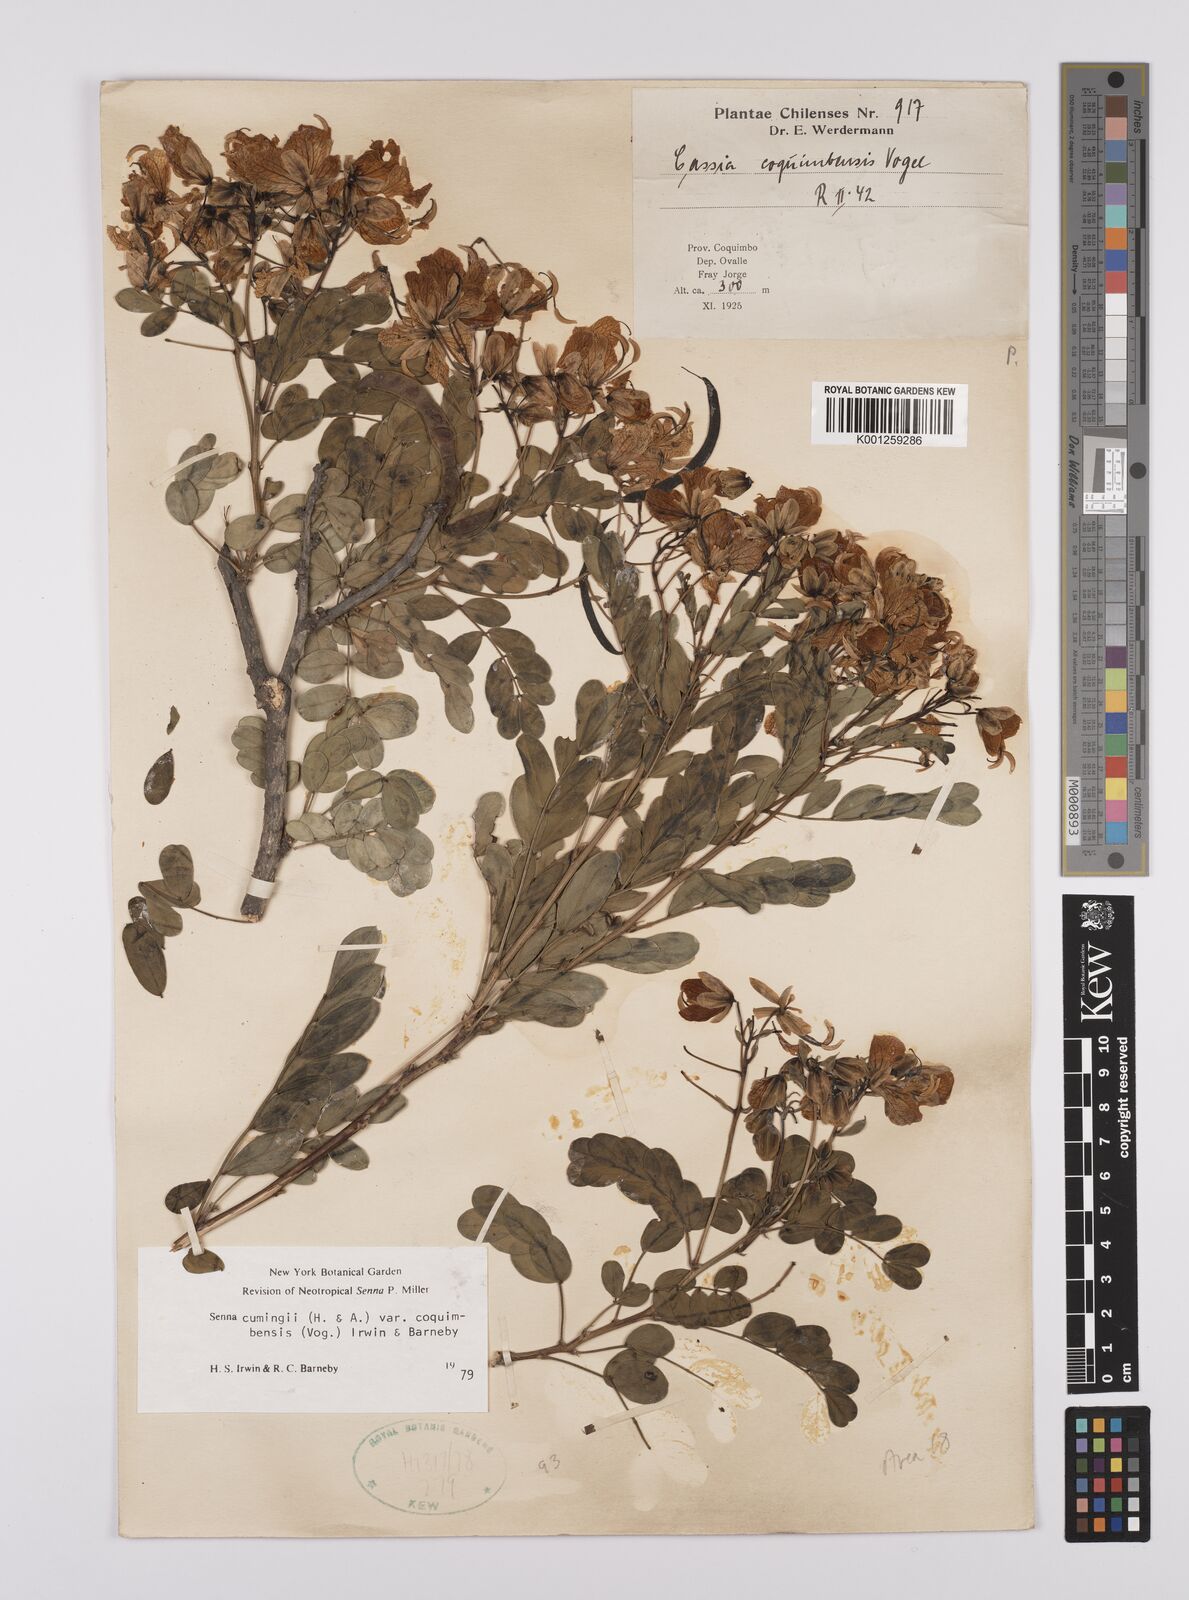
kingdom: Plantae
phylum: Tracheophyta
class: Magnoliopsida
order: Fabales
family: Fabaceae
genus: Senna
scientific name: Senna cumingii
